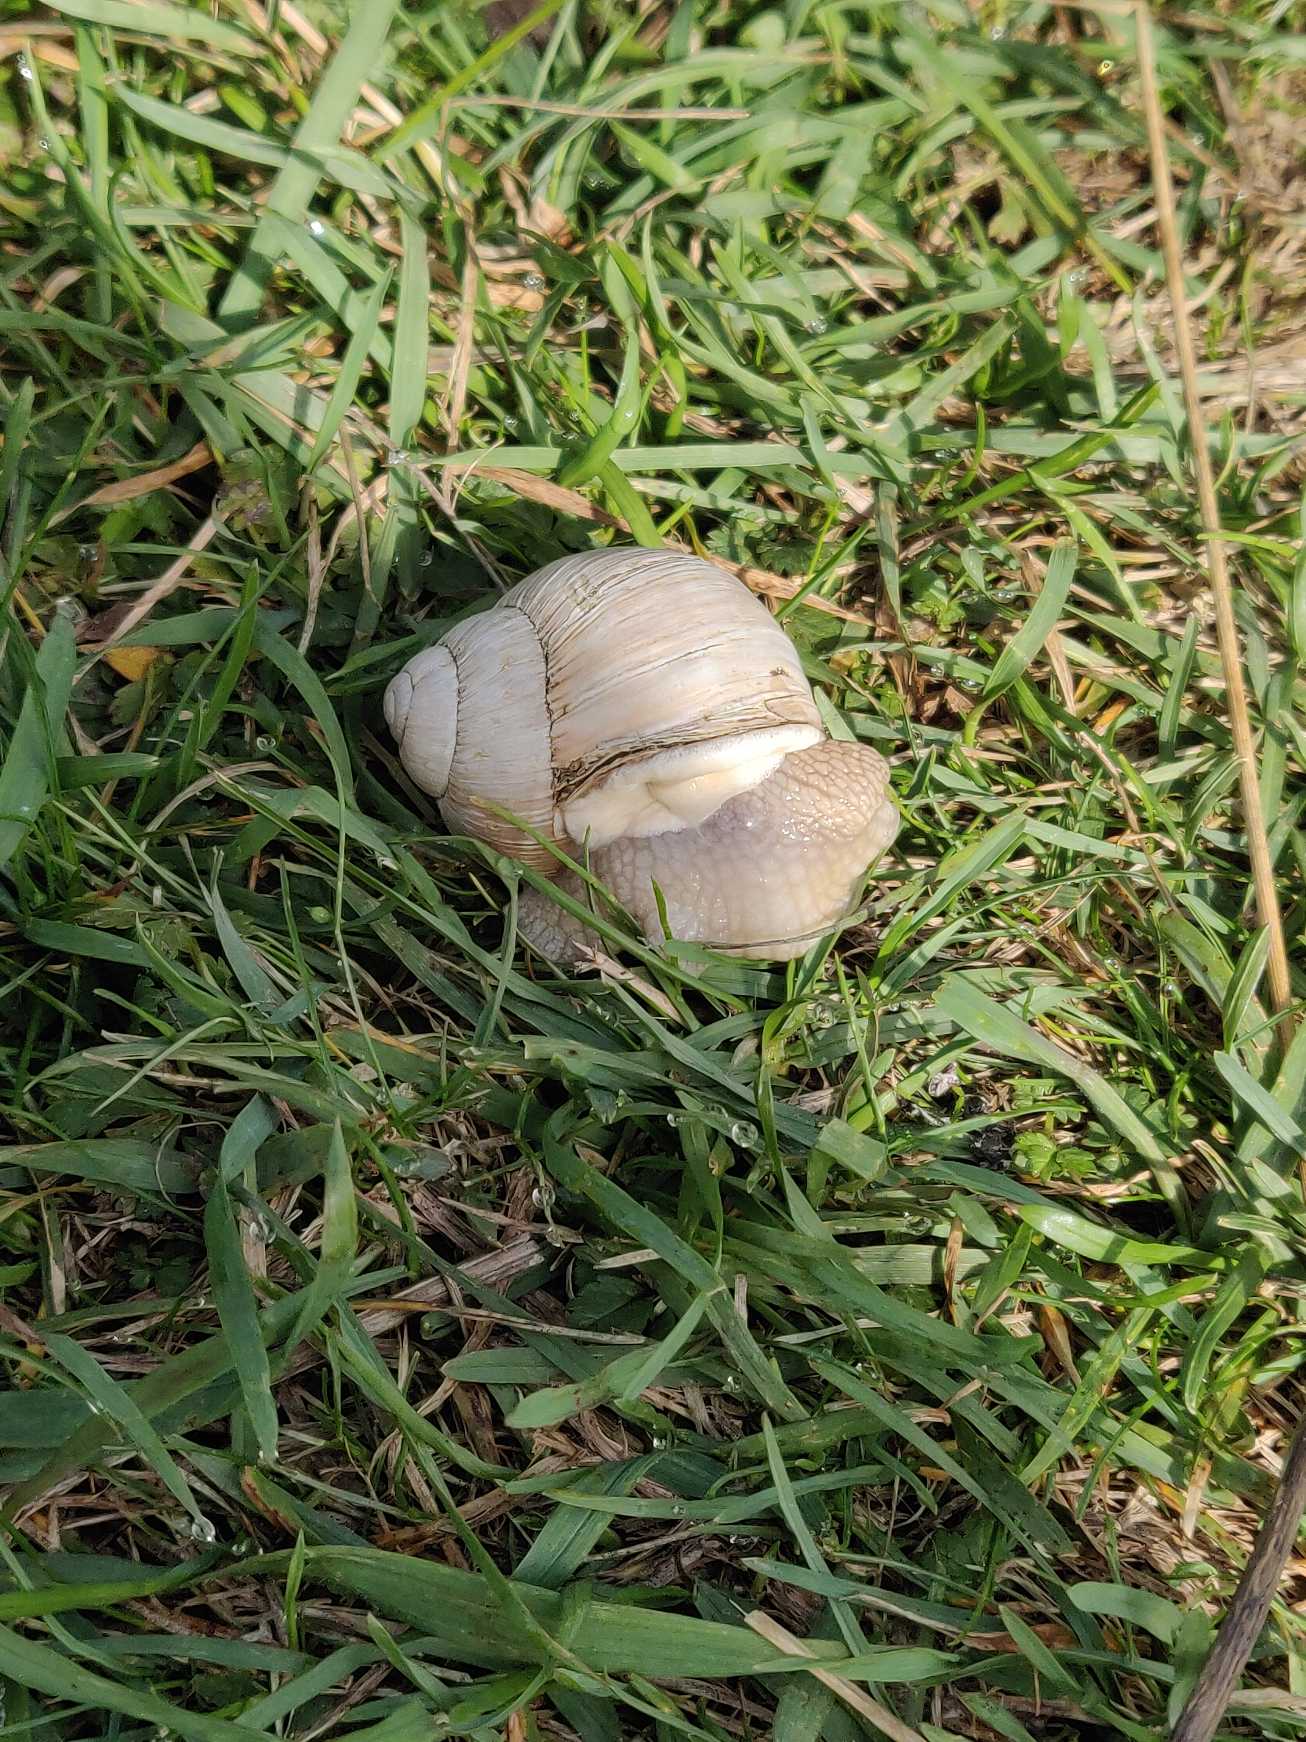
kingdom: Animalia
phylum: Mollusca
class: Gastropoda
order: Stylommatophora
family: Helicidae
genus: Helix
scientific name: Helix pomatia
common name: Vinbjergsnegl
